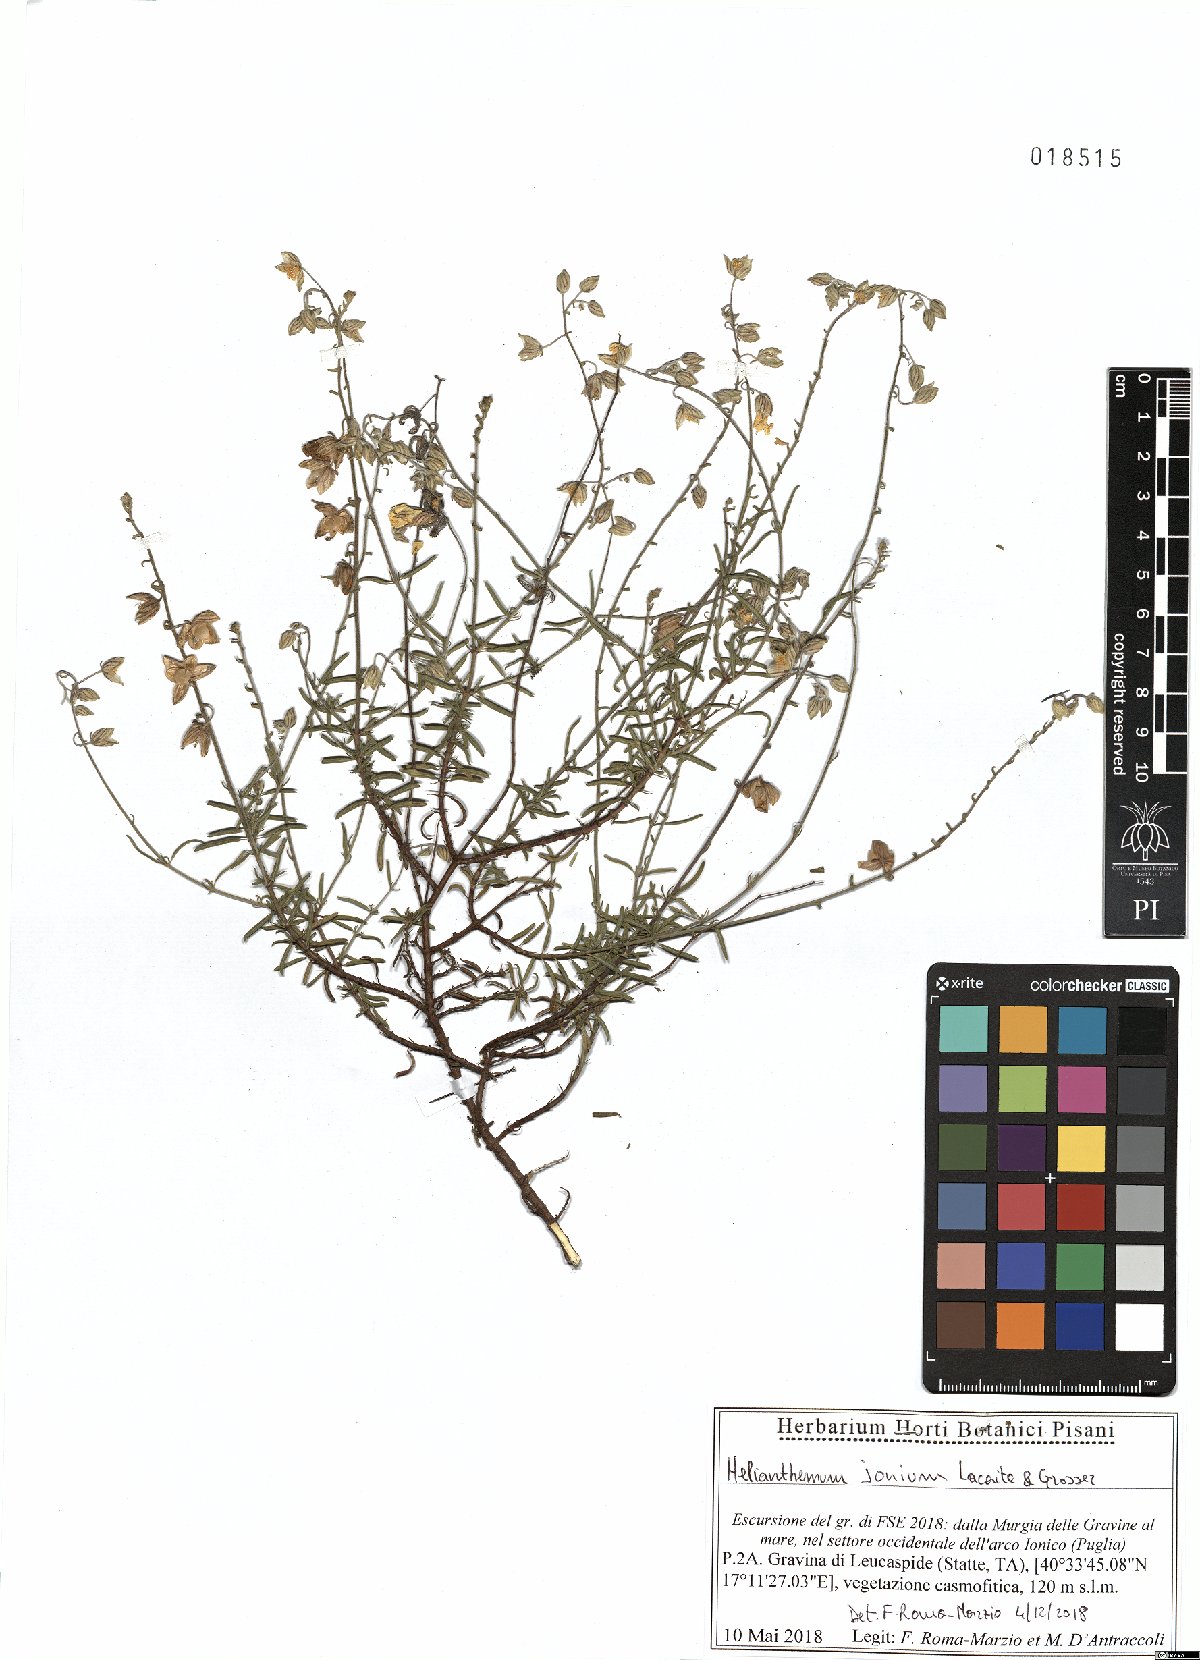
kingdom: Plantae
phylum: Tracheophyta
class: Magnoliopsida
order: Malvales
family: Cistaceae
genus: Helianthemum
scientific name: Helianthemum leptophyllum
